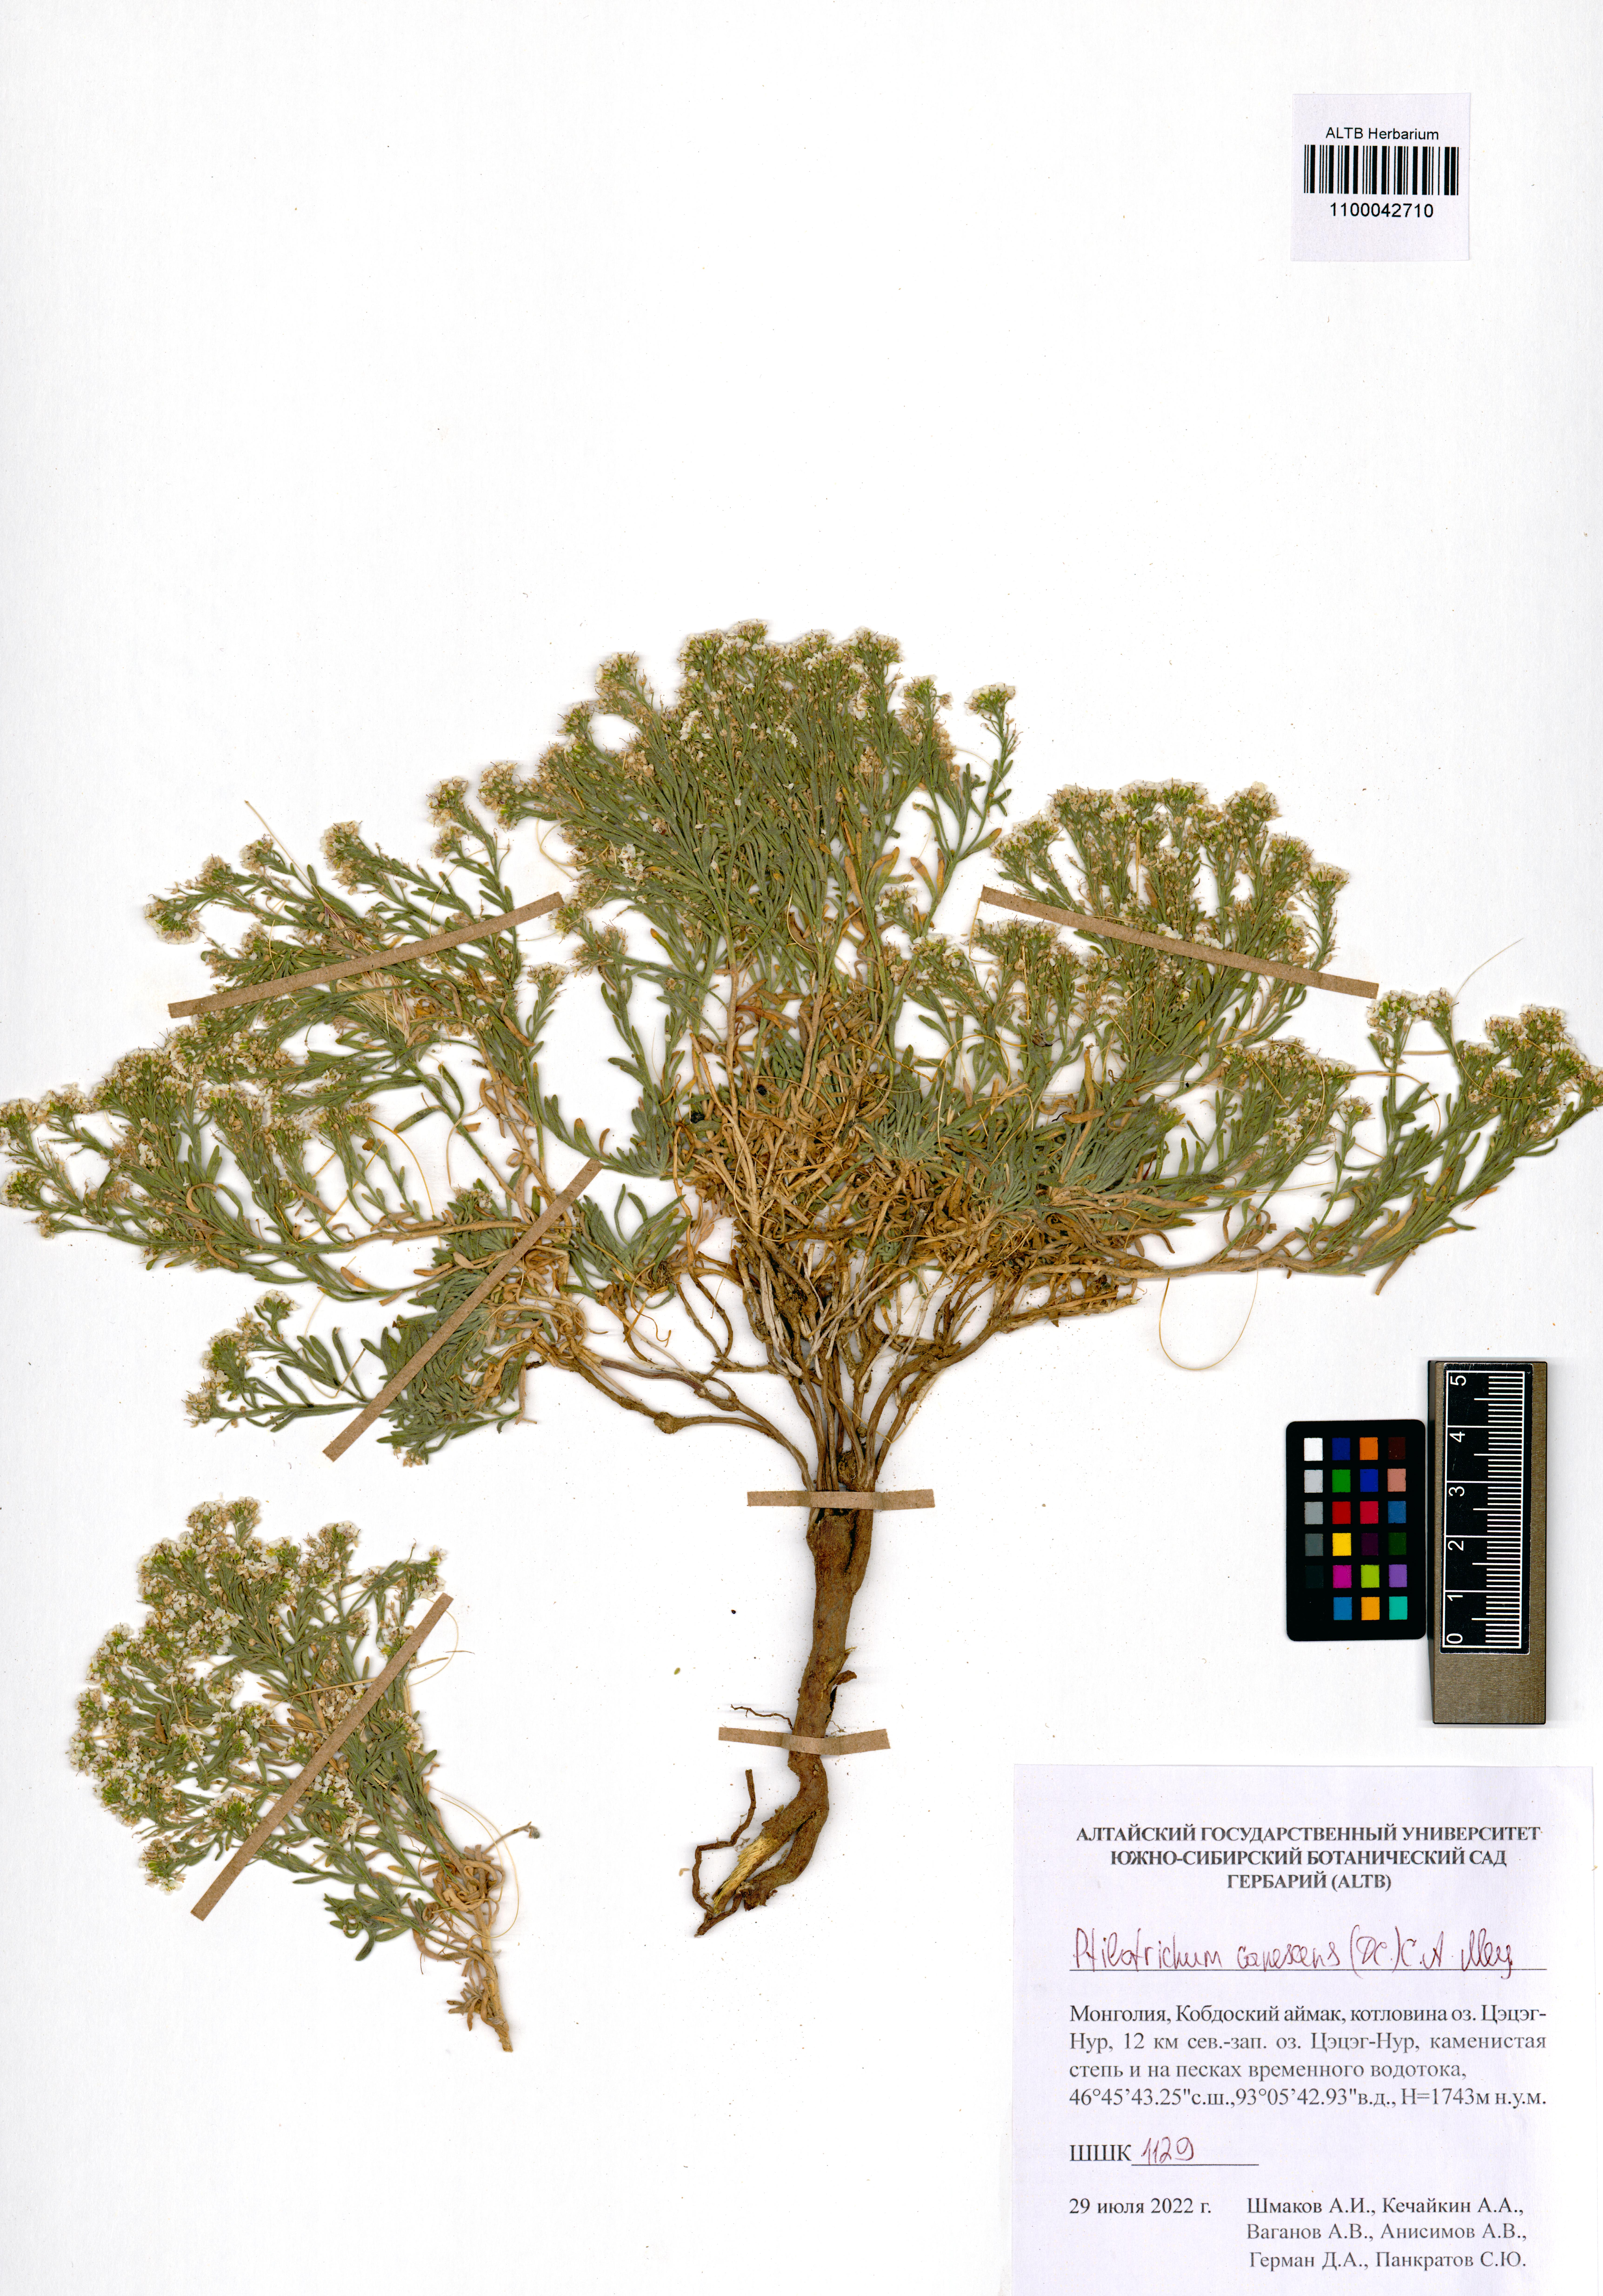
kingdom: Plantae
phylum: Tracheophyta
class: Magnoliopsida
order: Brassicales
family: Brassicaceae
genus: Stevenia
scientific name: Stevenia canescens
